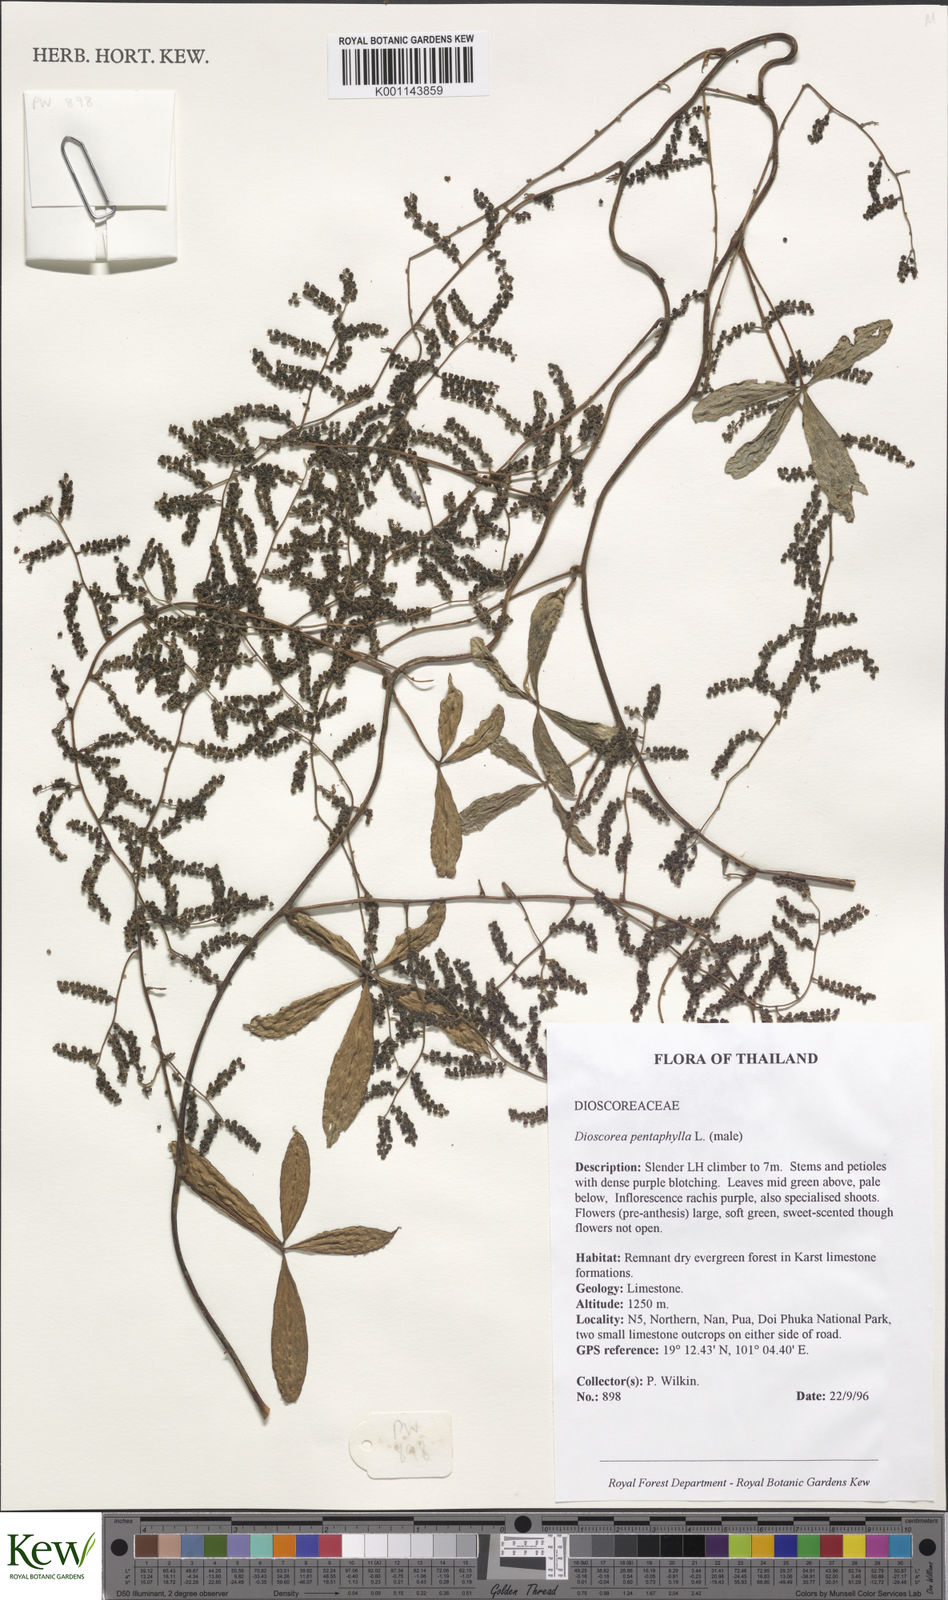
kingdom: Plantae
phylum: Tracheophyta
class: Liliopsida
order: Dioscoreales
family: Dioscoreaceae
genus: Dioscorea
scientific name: Dioscorea pentaphylla
